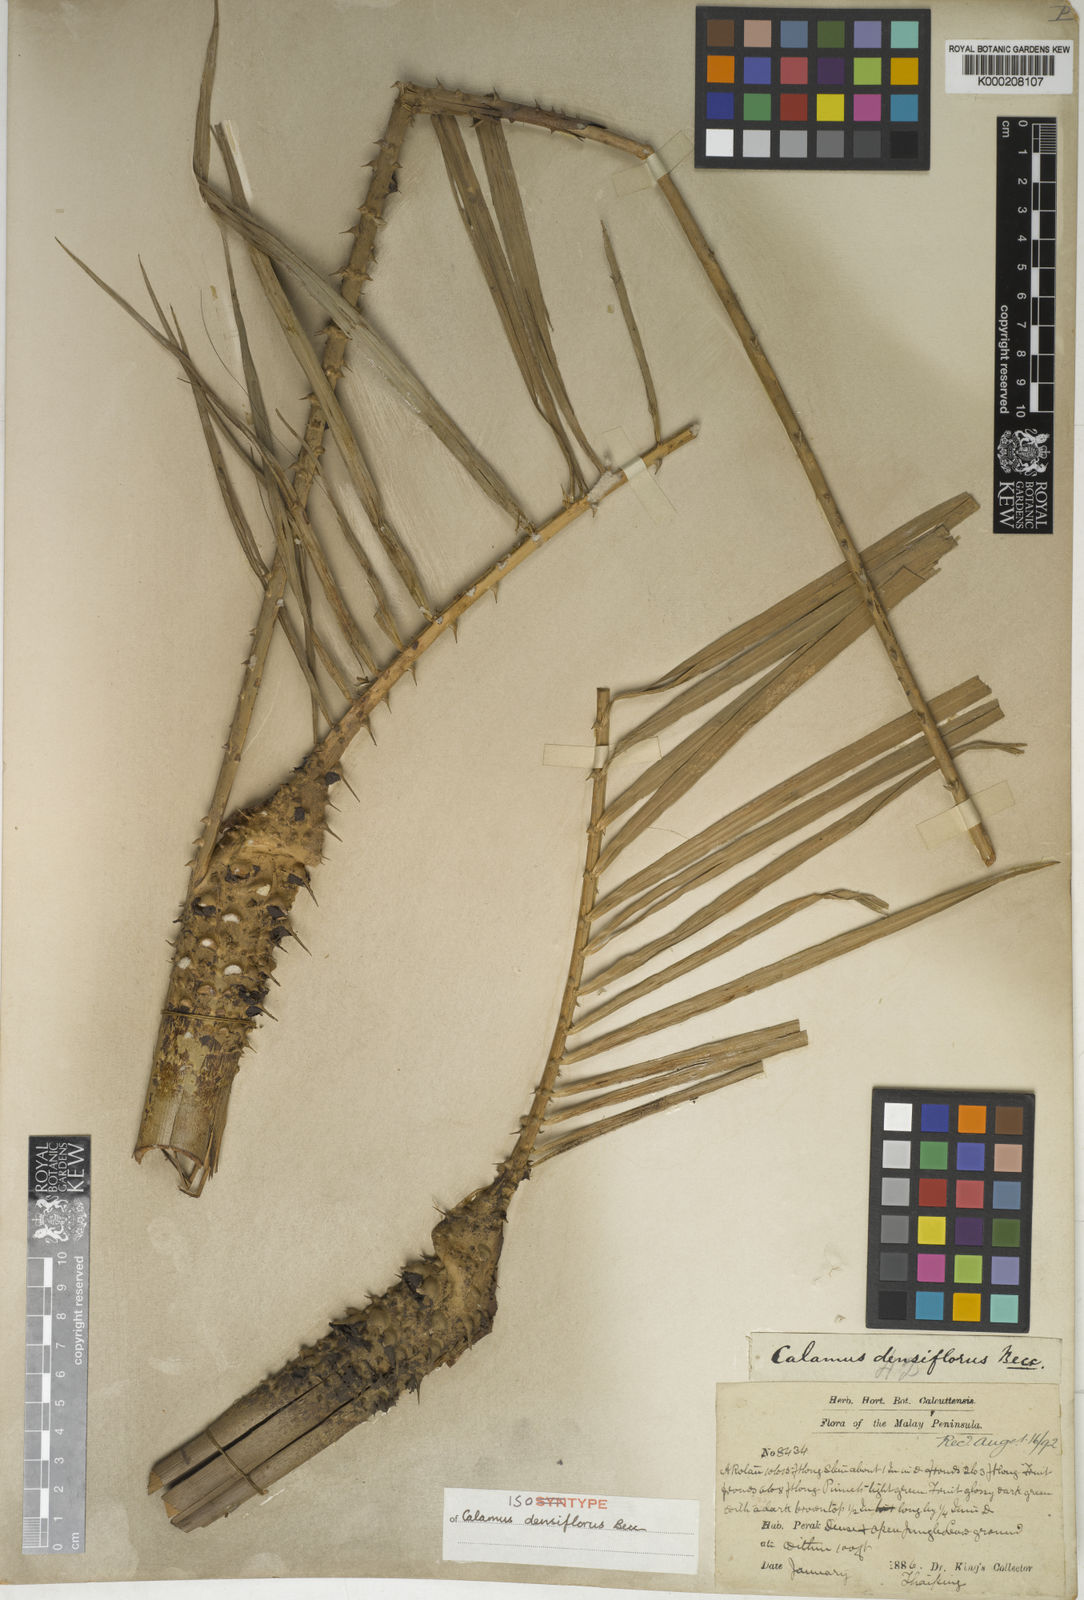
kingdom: Plantae
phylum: Tracheophyta
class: Liliopsida
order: Arecales
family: Arecaceae
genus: Calamus
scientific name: Calamus densiflorus
